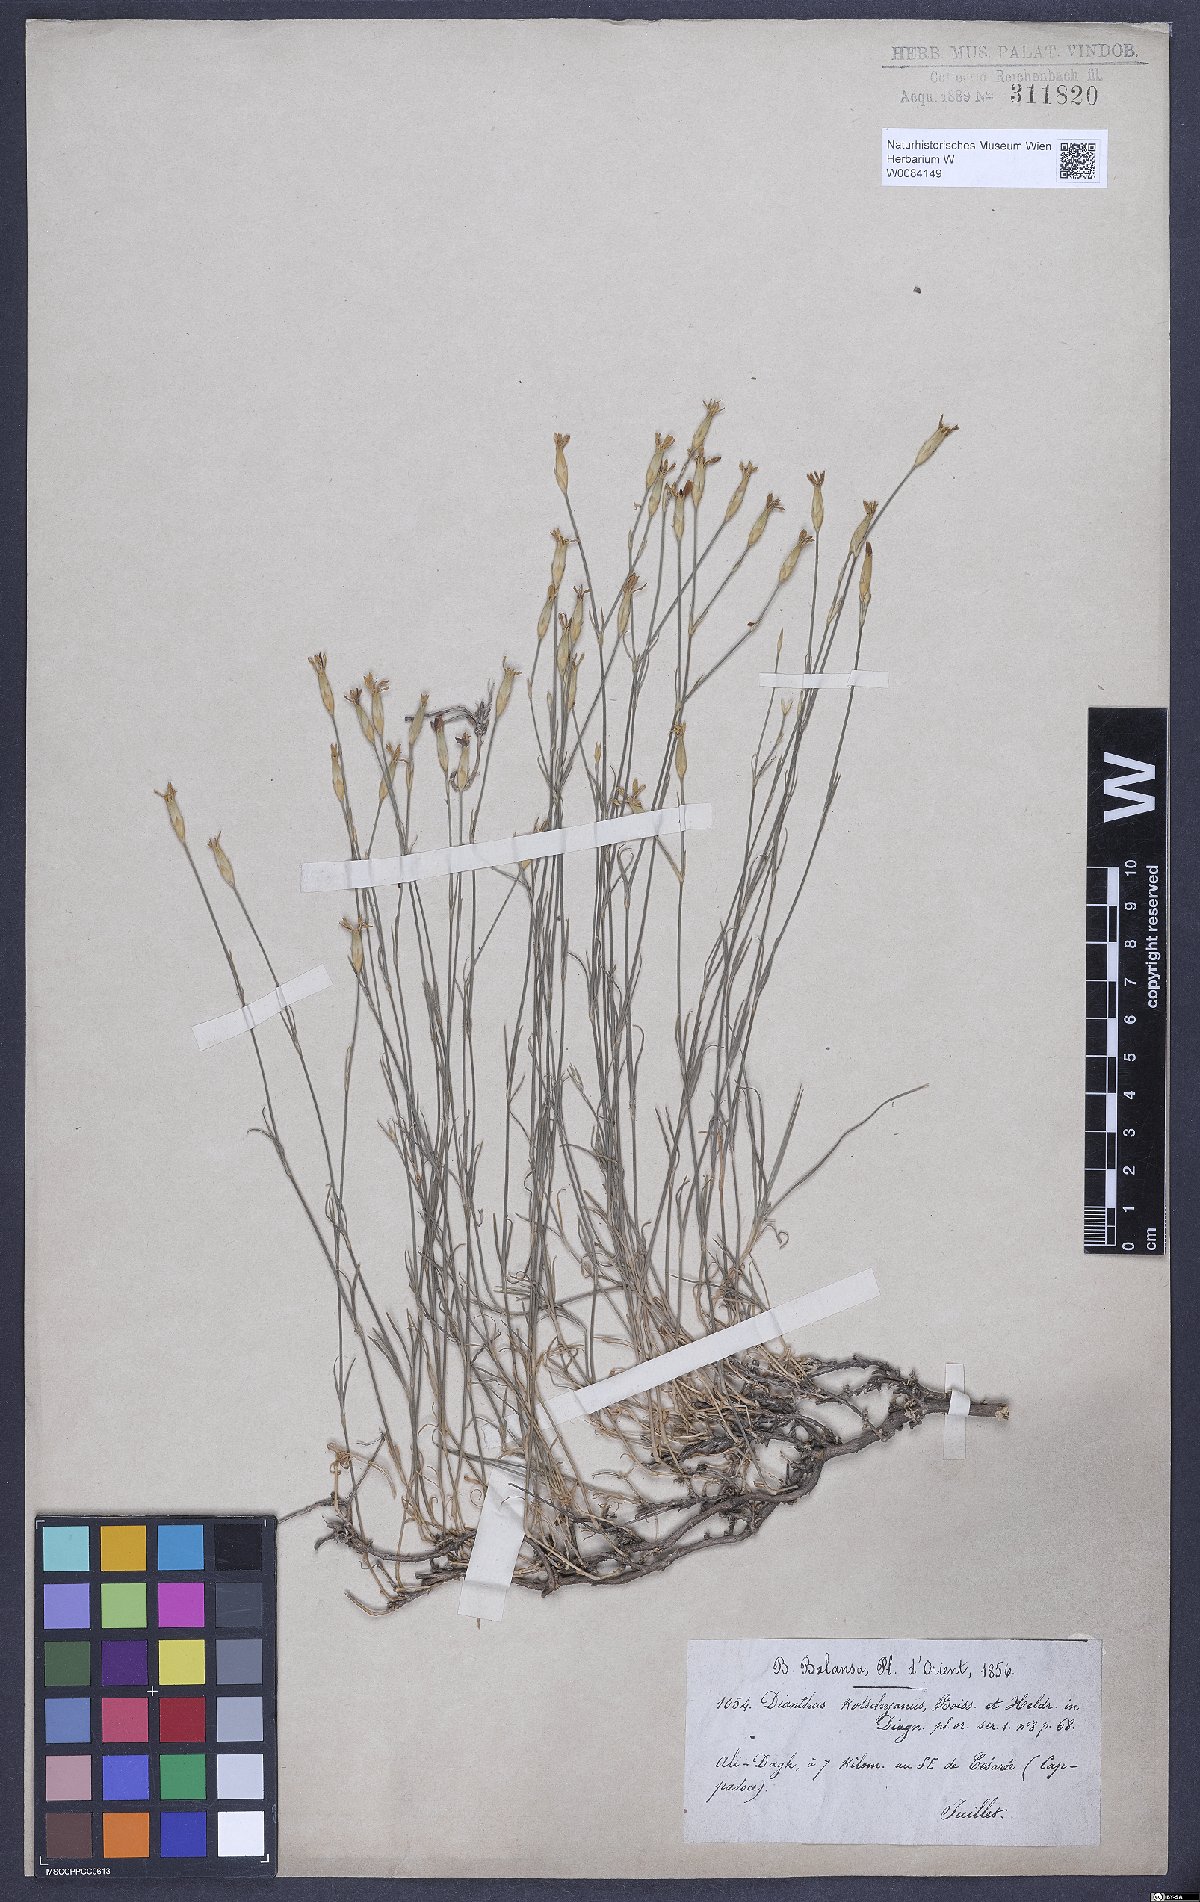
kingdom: Plantae
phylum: Tracheophyta
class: Magnoliopsida
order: Caryophyllales
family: Caryophyllaceae
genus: Dianthus
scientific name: Dianthus anatolicus
